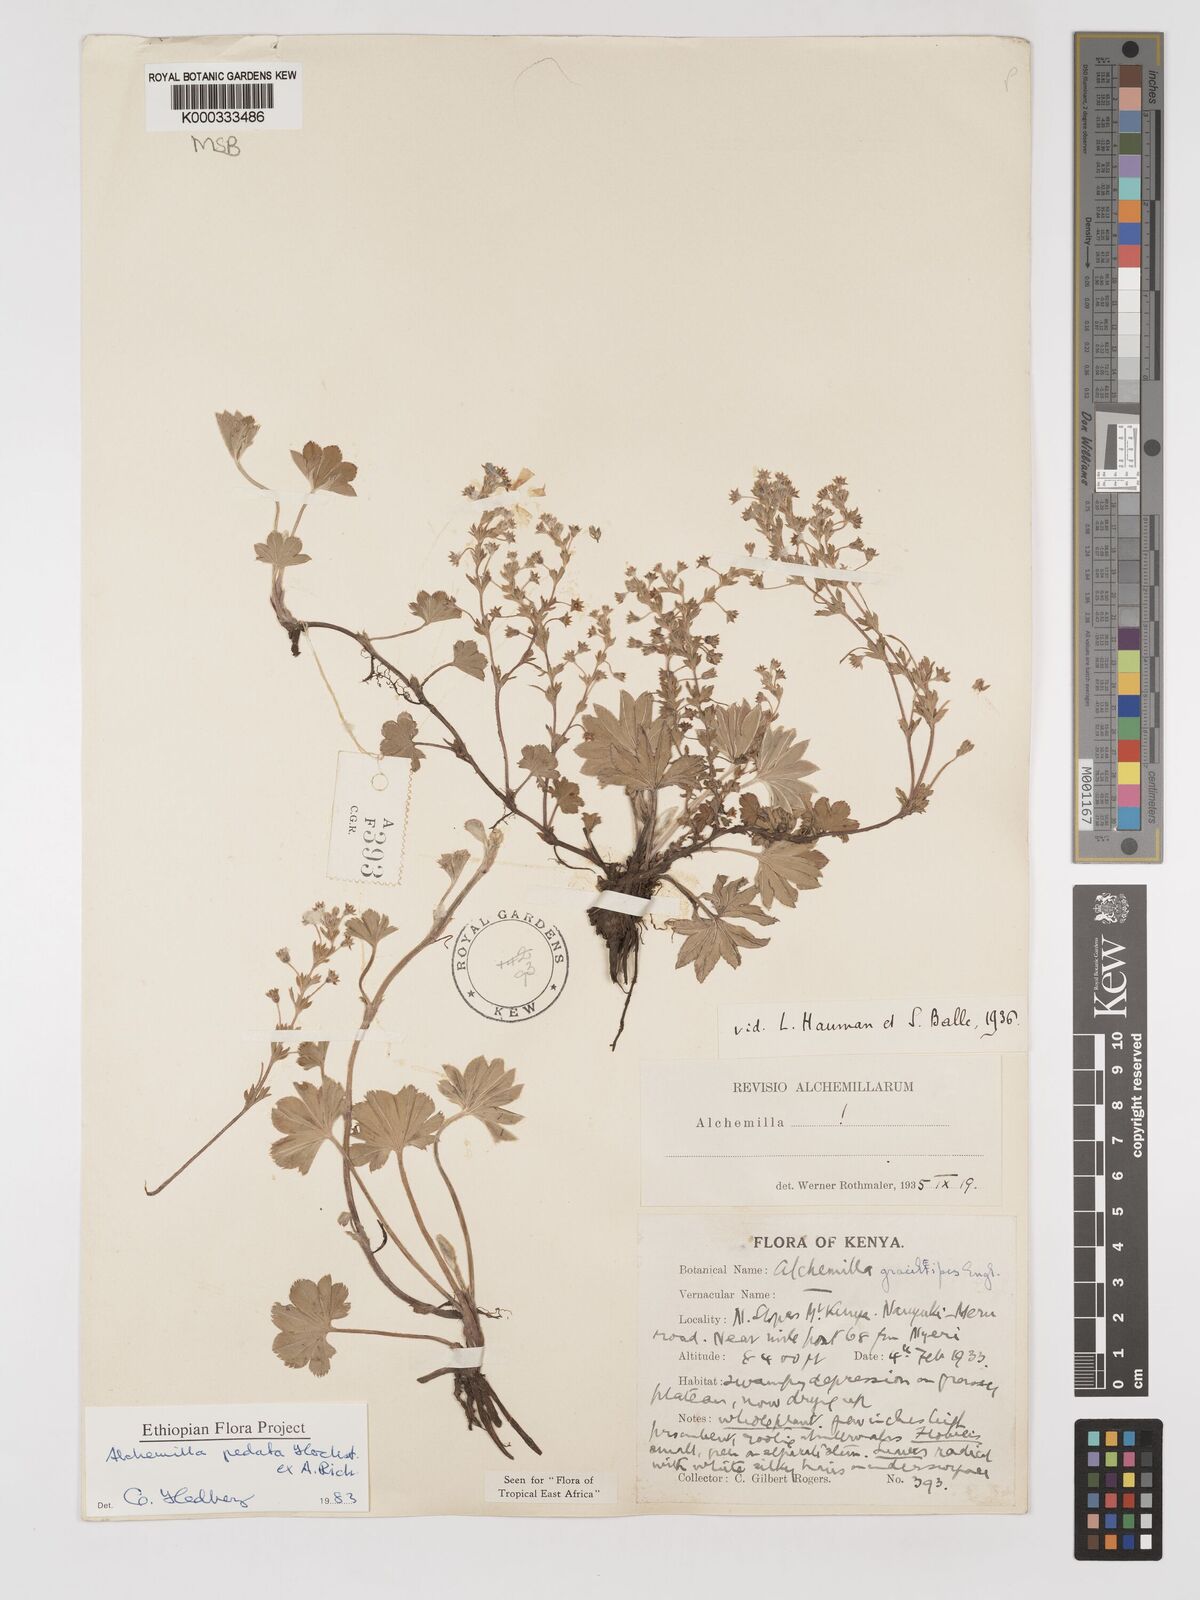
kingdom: Plantae
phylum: Tracheophyta
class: Magnoliopsida
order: Rosales
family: Rosaceae
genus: Alchemilla
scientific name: Alchemilla pedata
